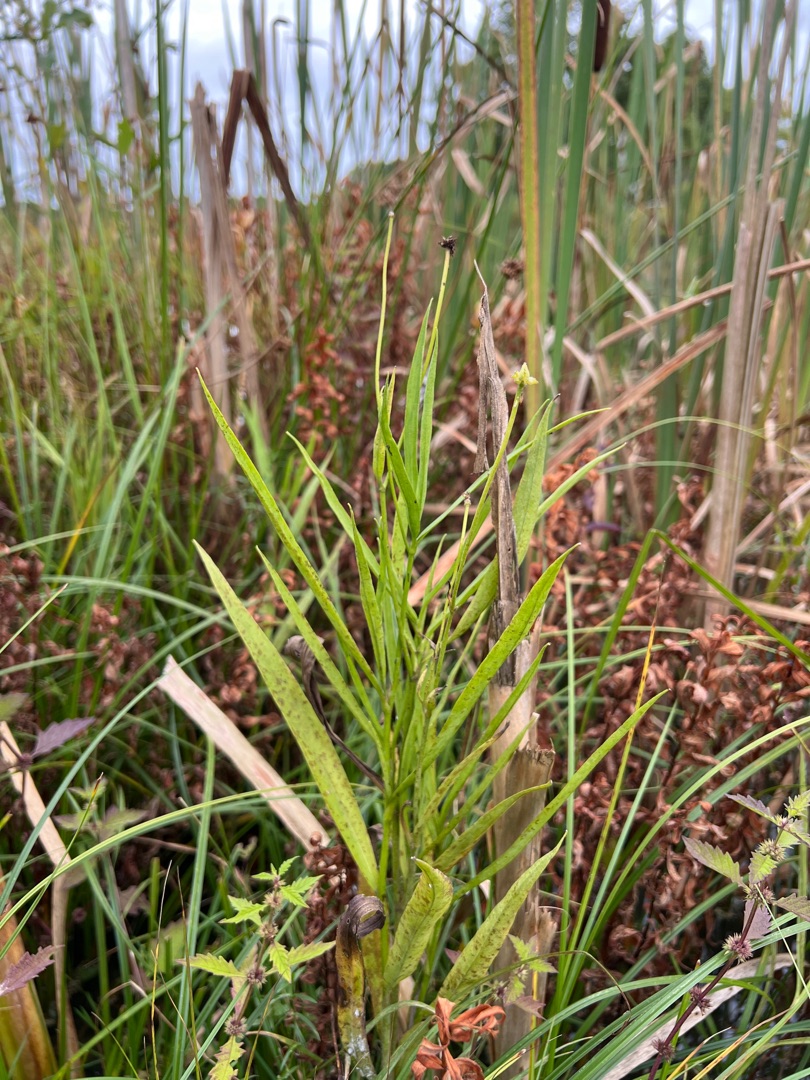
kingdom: Plantae
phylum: Tracheophyta
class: Magnoliopsida
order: Ranunculales
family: Ranunculaceae
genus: Ranunculus
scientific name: Ranunculus lingua
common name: Langbladet ranunkel
